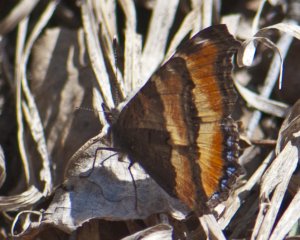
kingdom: Animalia
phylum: Arthropoda
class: Insecta
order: Lepidoptera
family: Nymphalidae
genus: Aglais
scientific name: Aglais milberti
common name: Milbert's Tortoiseshell
